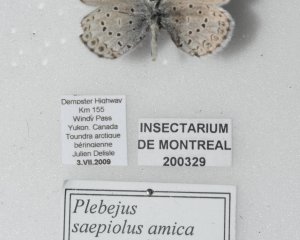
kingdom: Animalia
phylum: Arthropoda
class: Insecta
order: Lepidoptera
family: Lycaenidae
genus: Plebejus
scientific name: Plebejus saepiolus
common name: Greenish Blue
